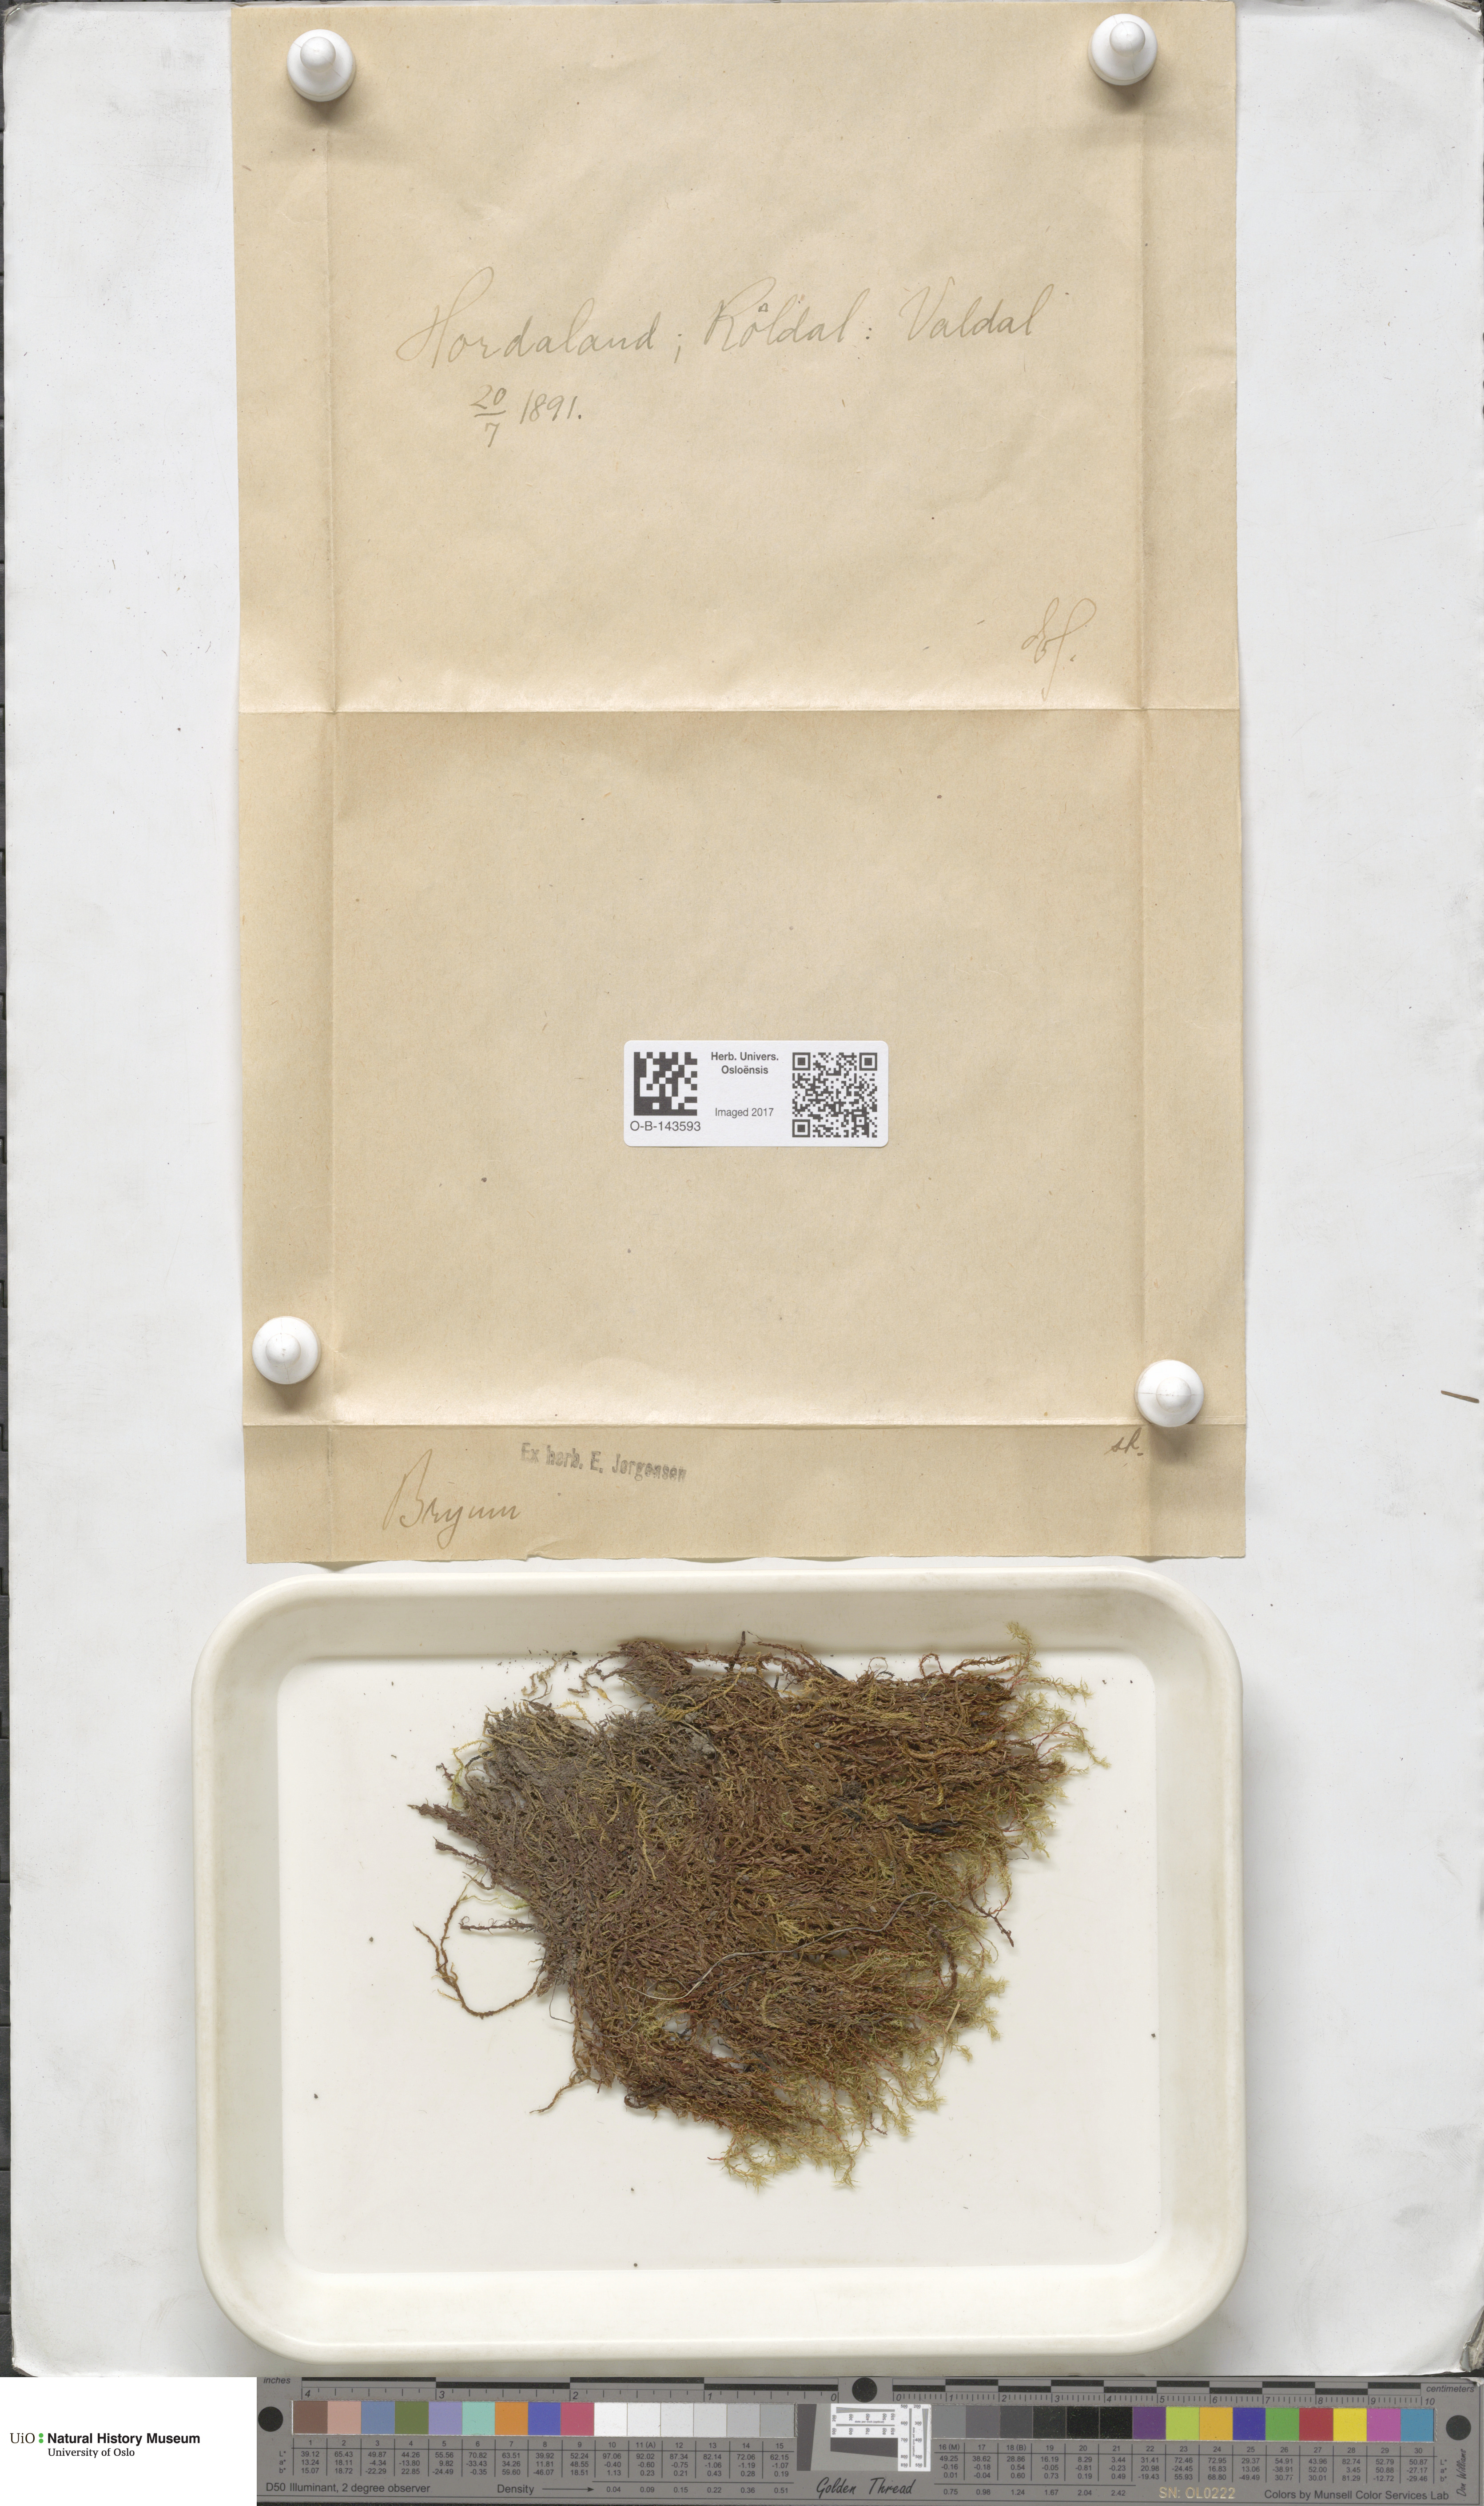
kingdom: Plantae
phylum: Bryophyta
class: Bryopsida
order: Bryales
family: Bryaceae
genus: Bryum
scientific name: Bryum
